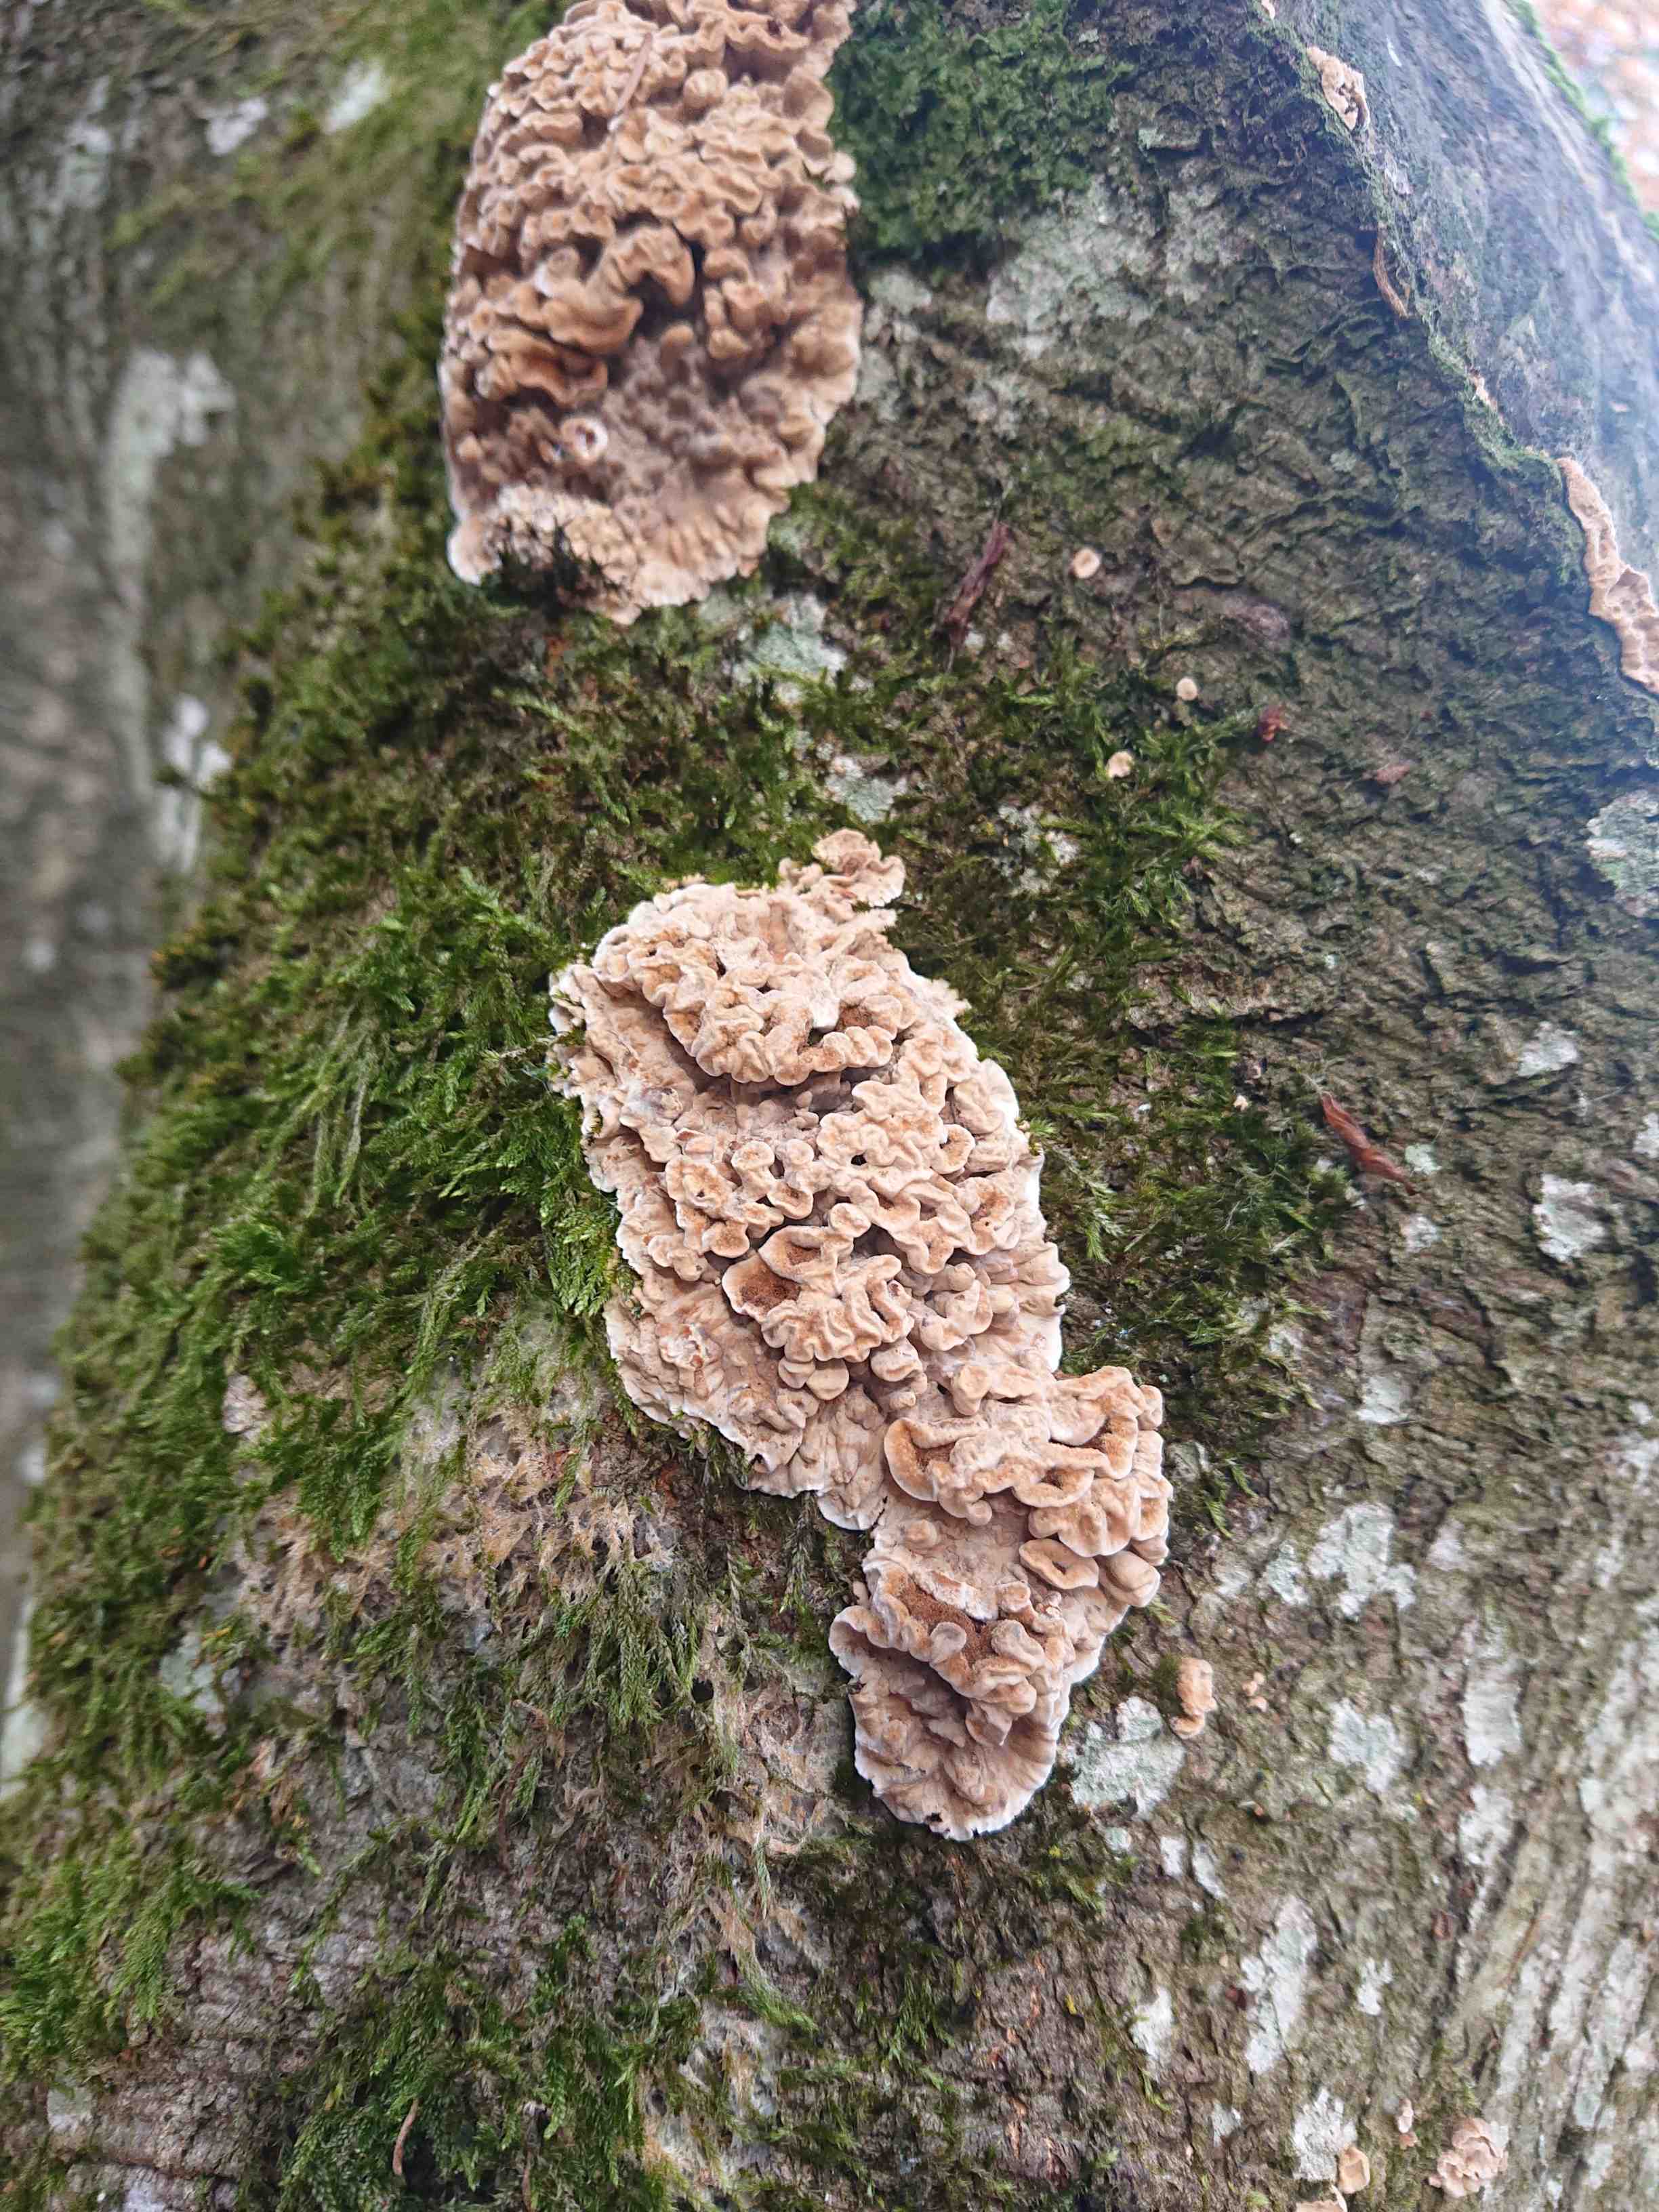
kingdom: Fungi
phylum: Basidiomycota
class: Agaricomycetes
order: Corticiales
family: Corticiaceae
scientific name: Corticiaceae
